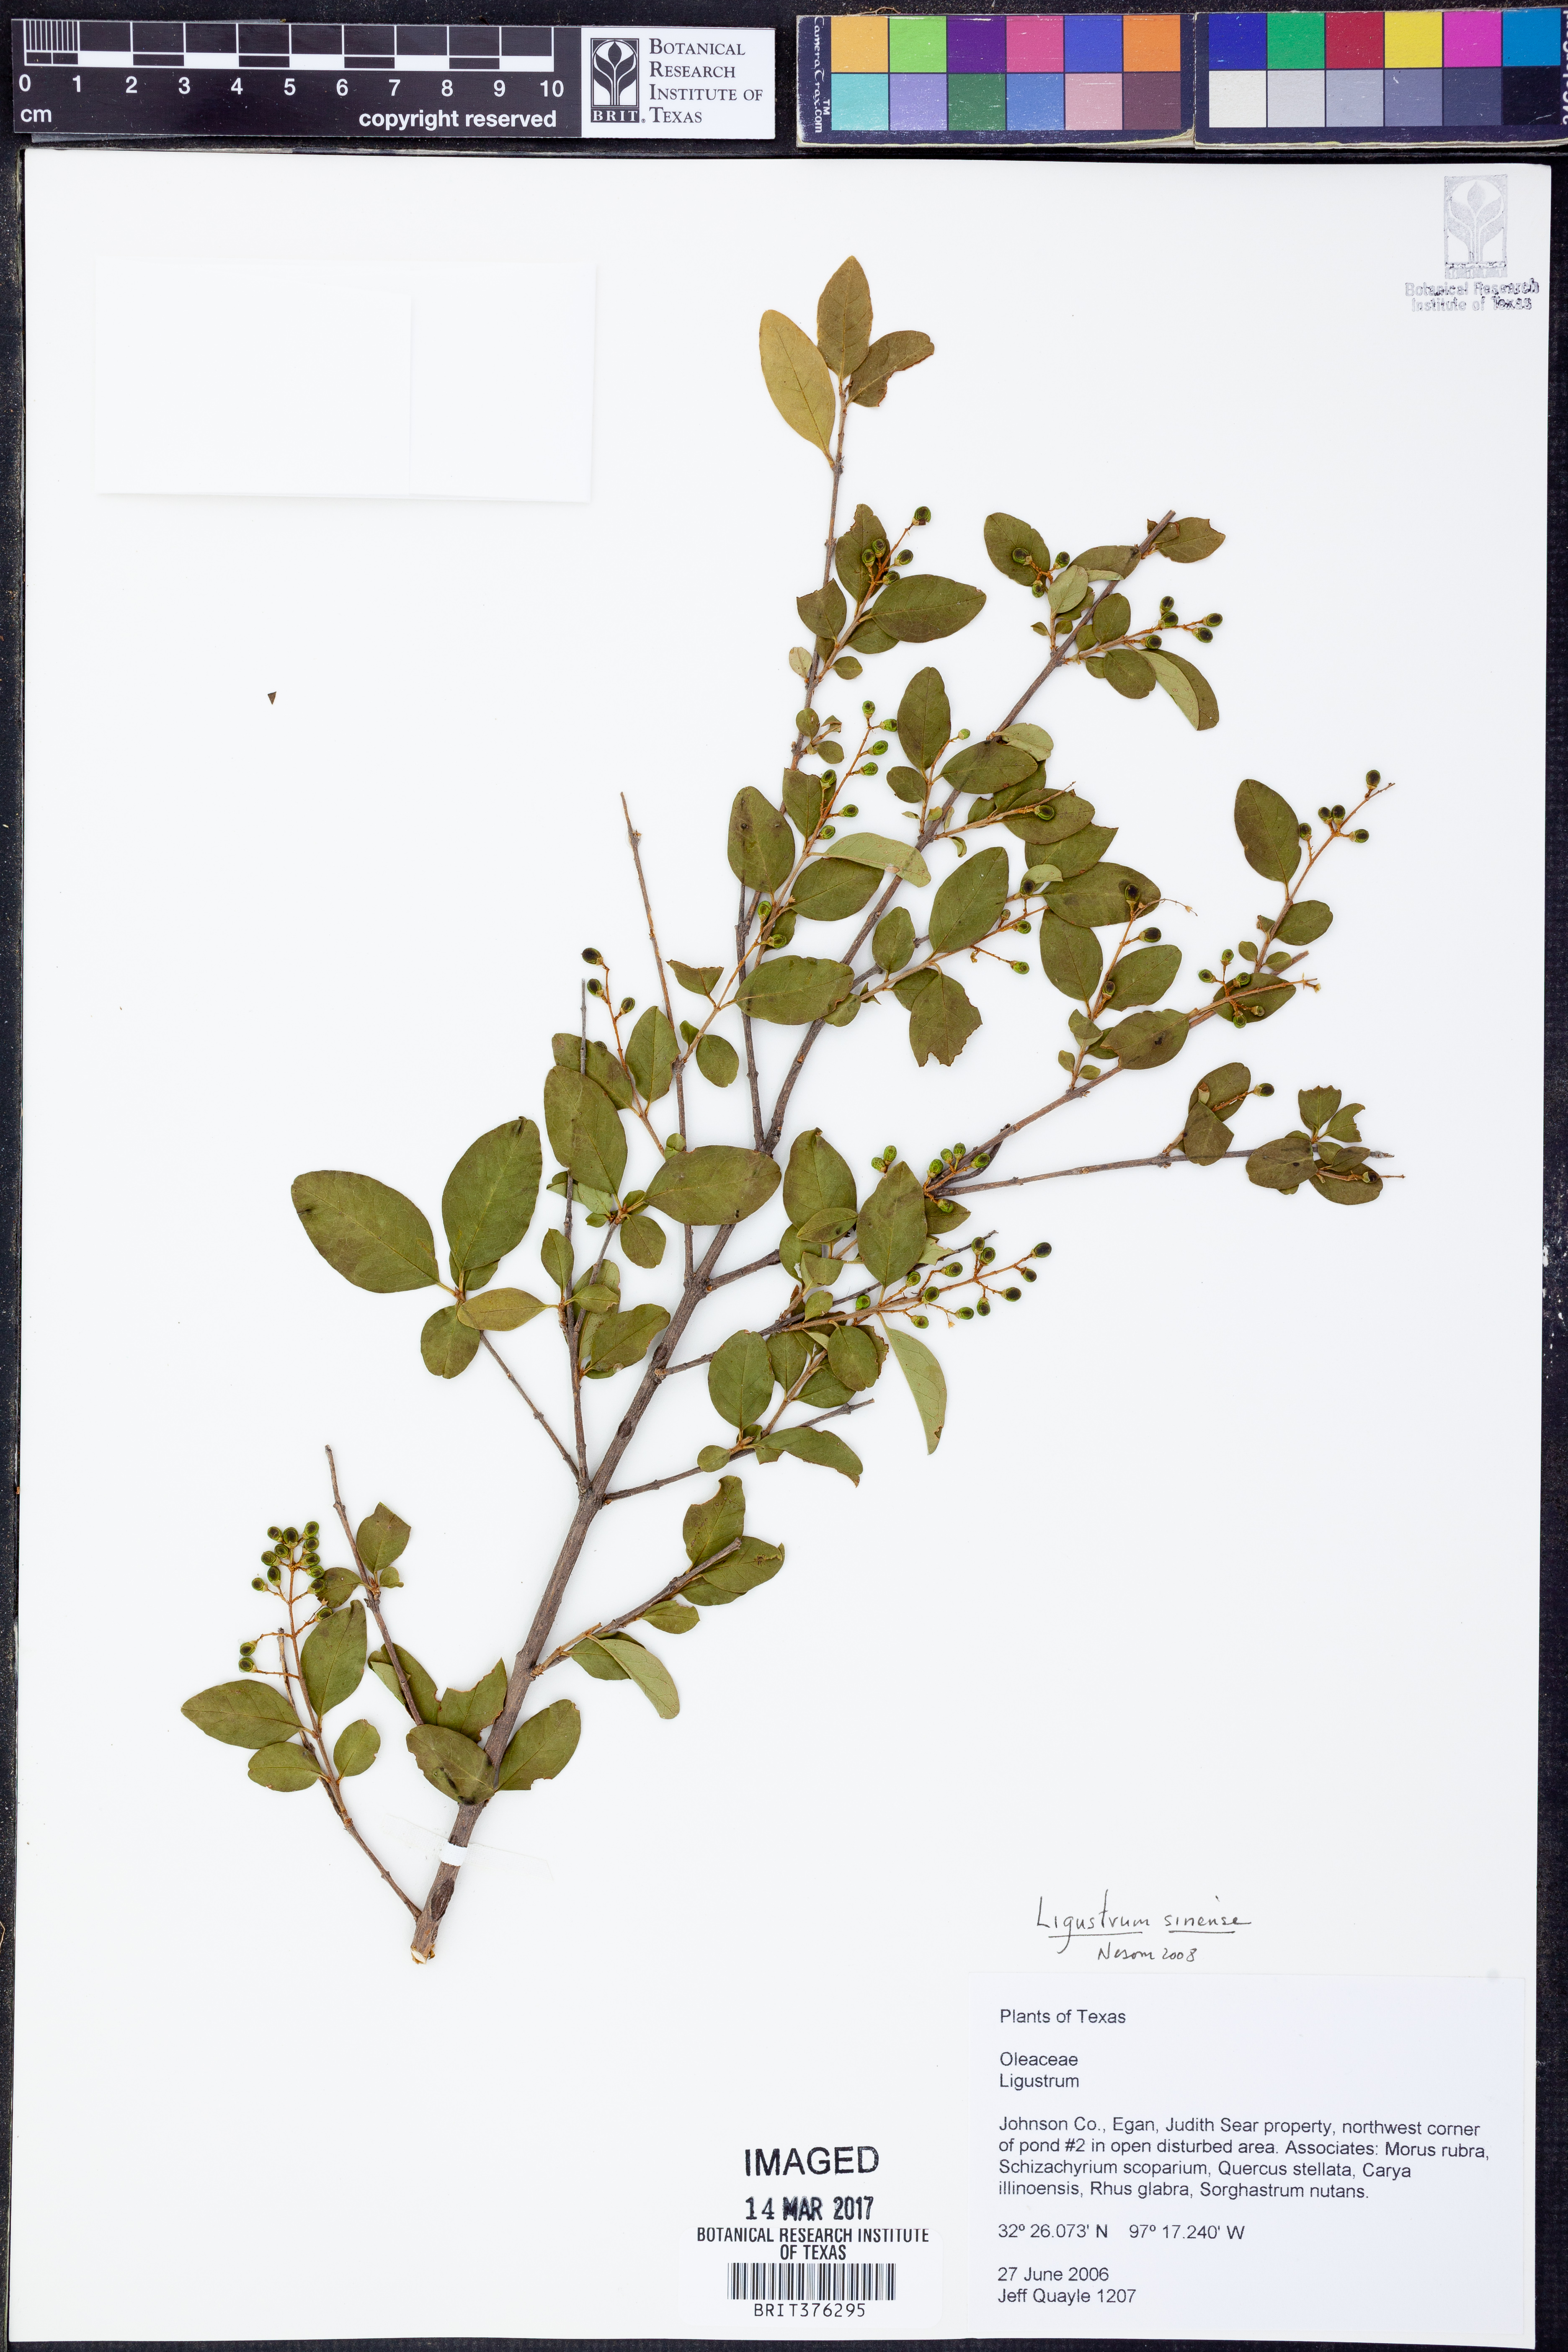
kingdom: Plantae
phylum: Tracheophyta
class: Magnoliopsida
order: Lamiales
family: Oleaceae
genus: Ligustrum
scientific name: Ligustrum sinense
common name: Chinese privet
